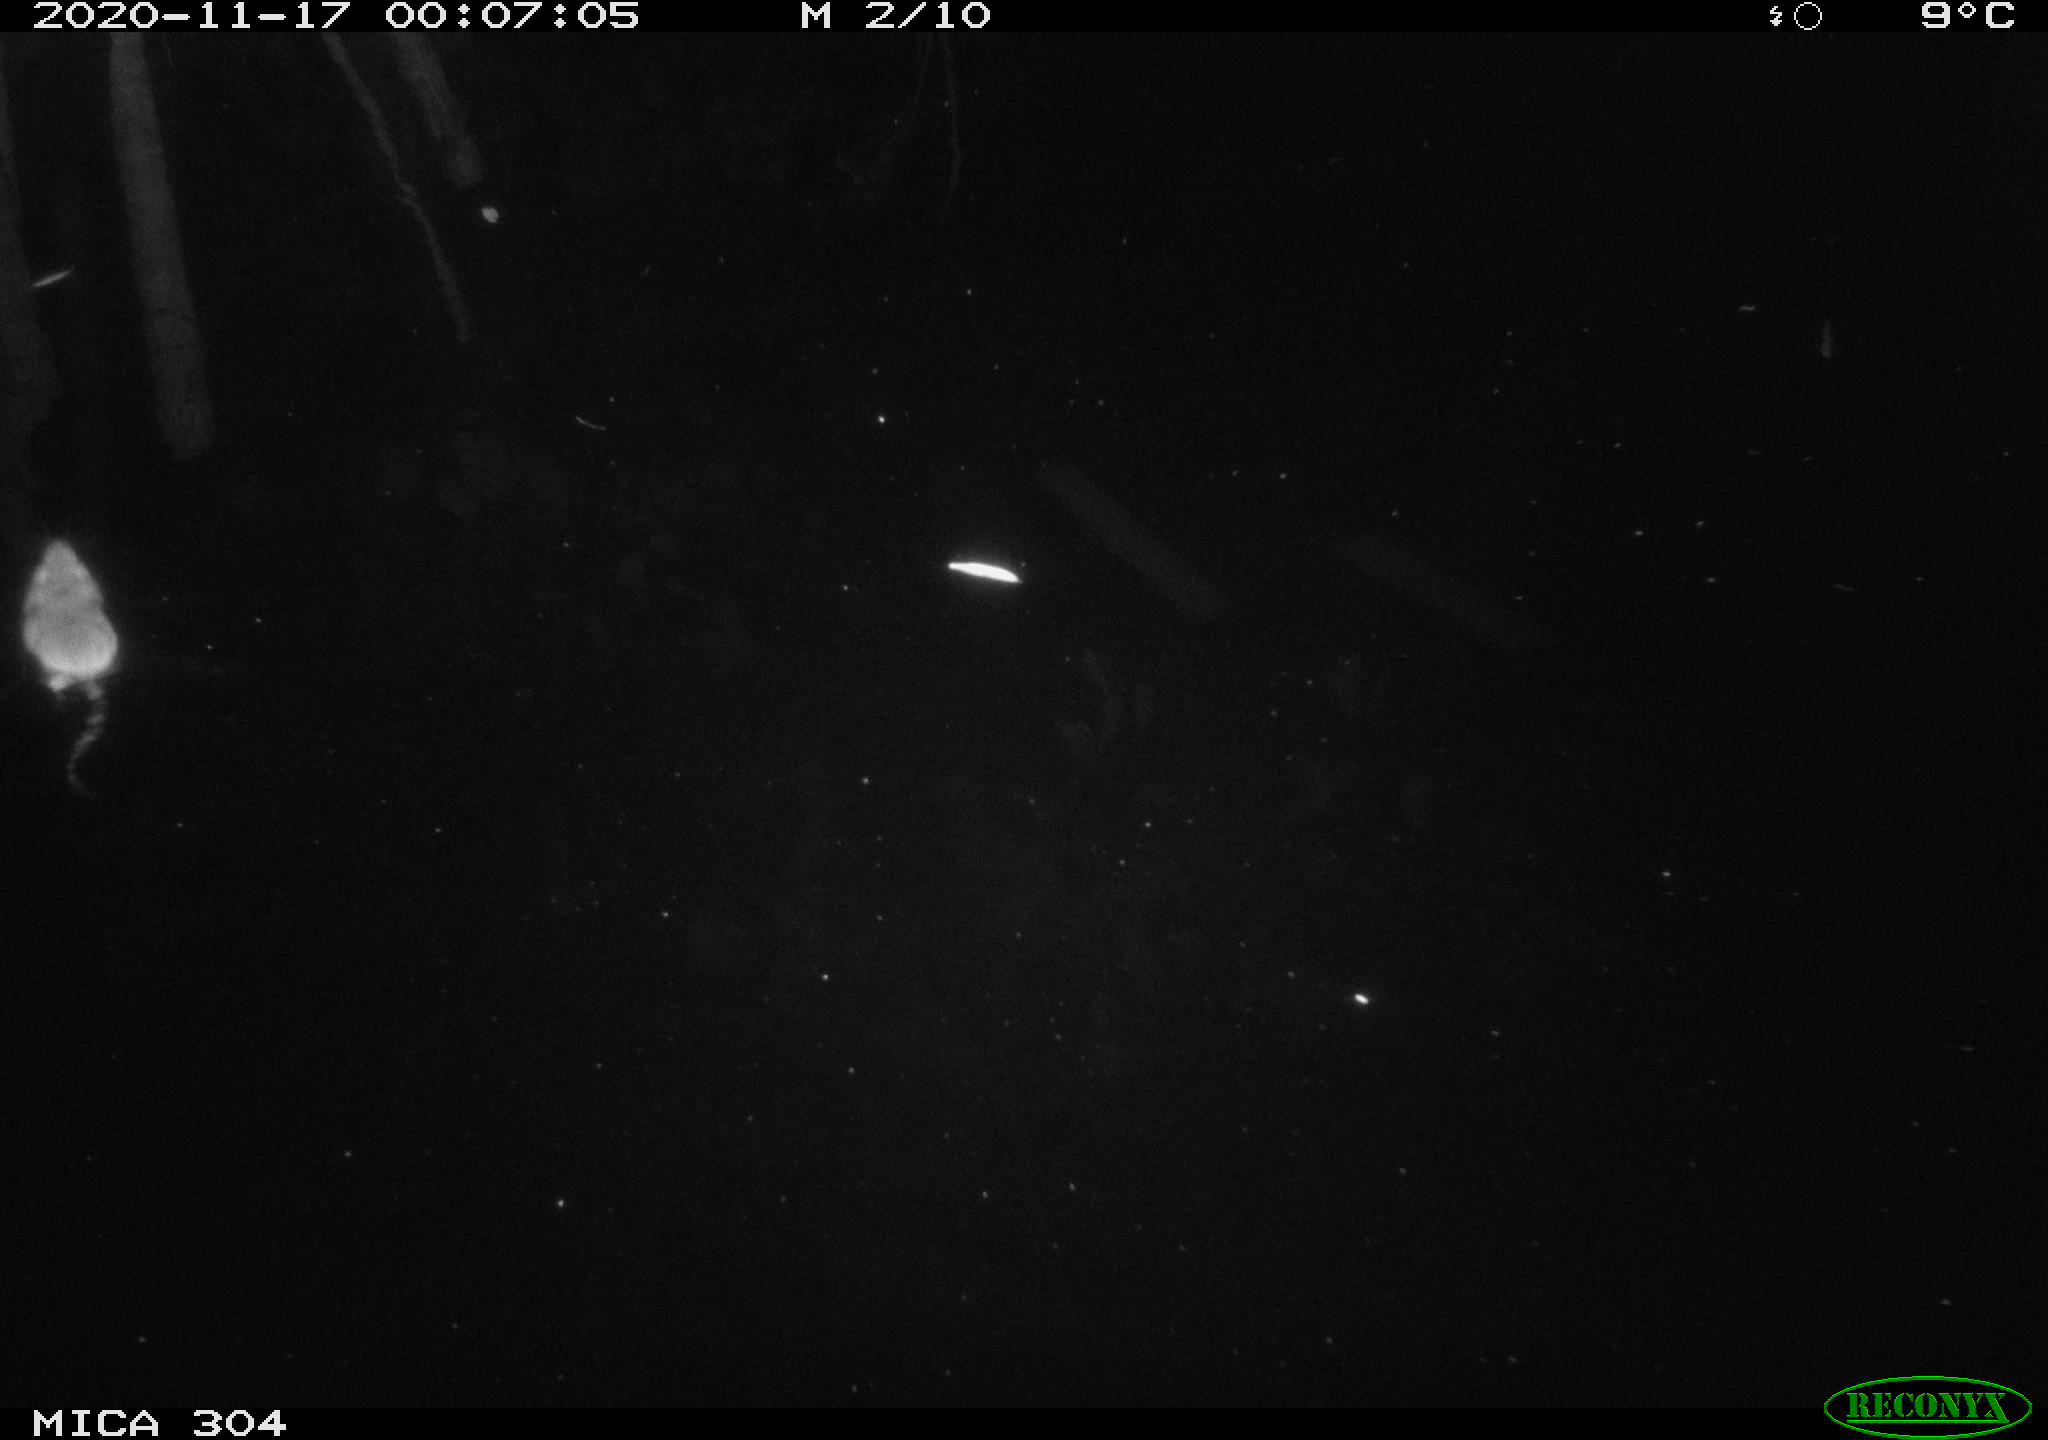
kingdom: Animalia
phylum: Chordata
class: Mammalia
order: Rodentia
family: Cricetidae
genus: Ondatra
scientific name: Ondatra zibethicus
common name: Muskrat
